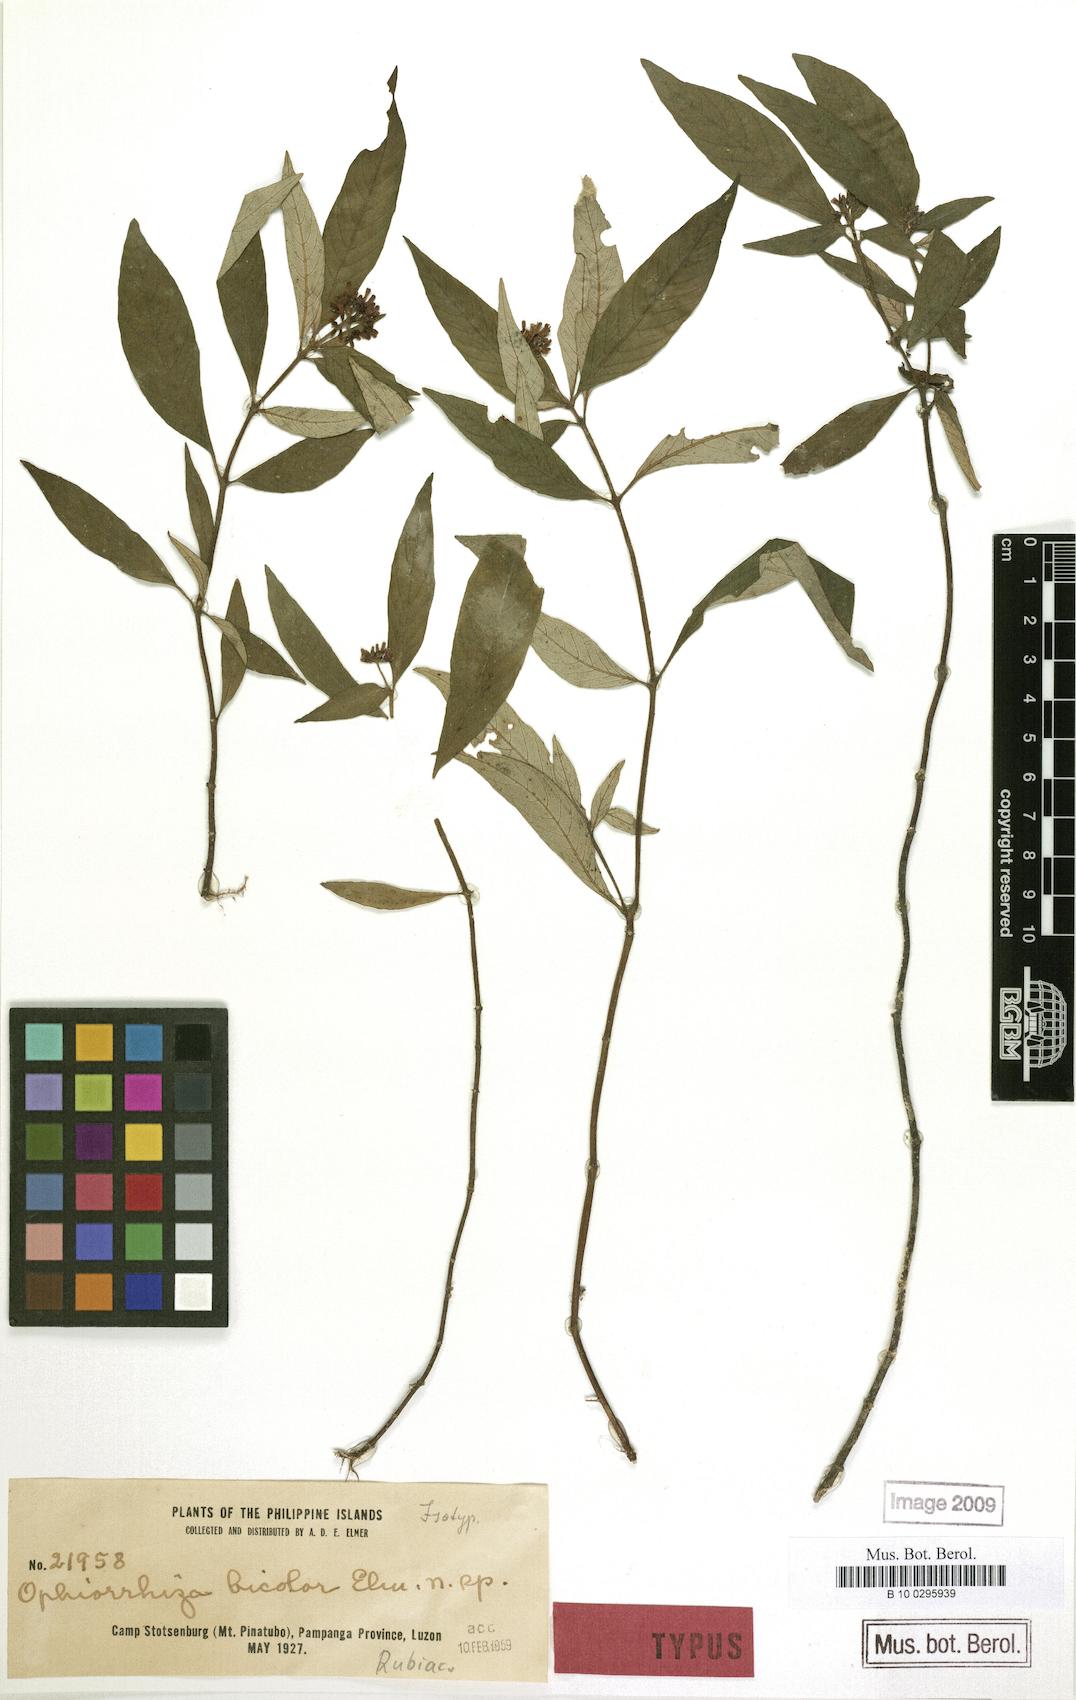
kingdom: Plantae
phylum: Tracheophyta
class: Magnoliopsida
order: Gentianales
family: Rubiaceae
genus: Ophiorrhiza
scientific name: Ophiorrhiza pinatuboensis
